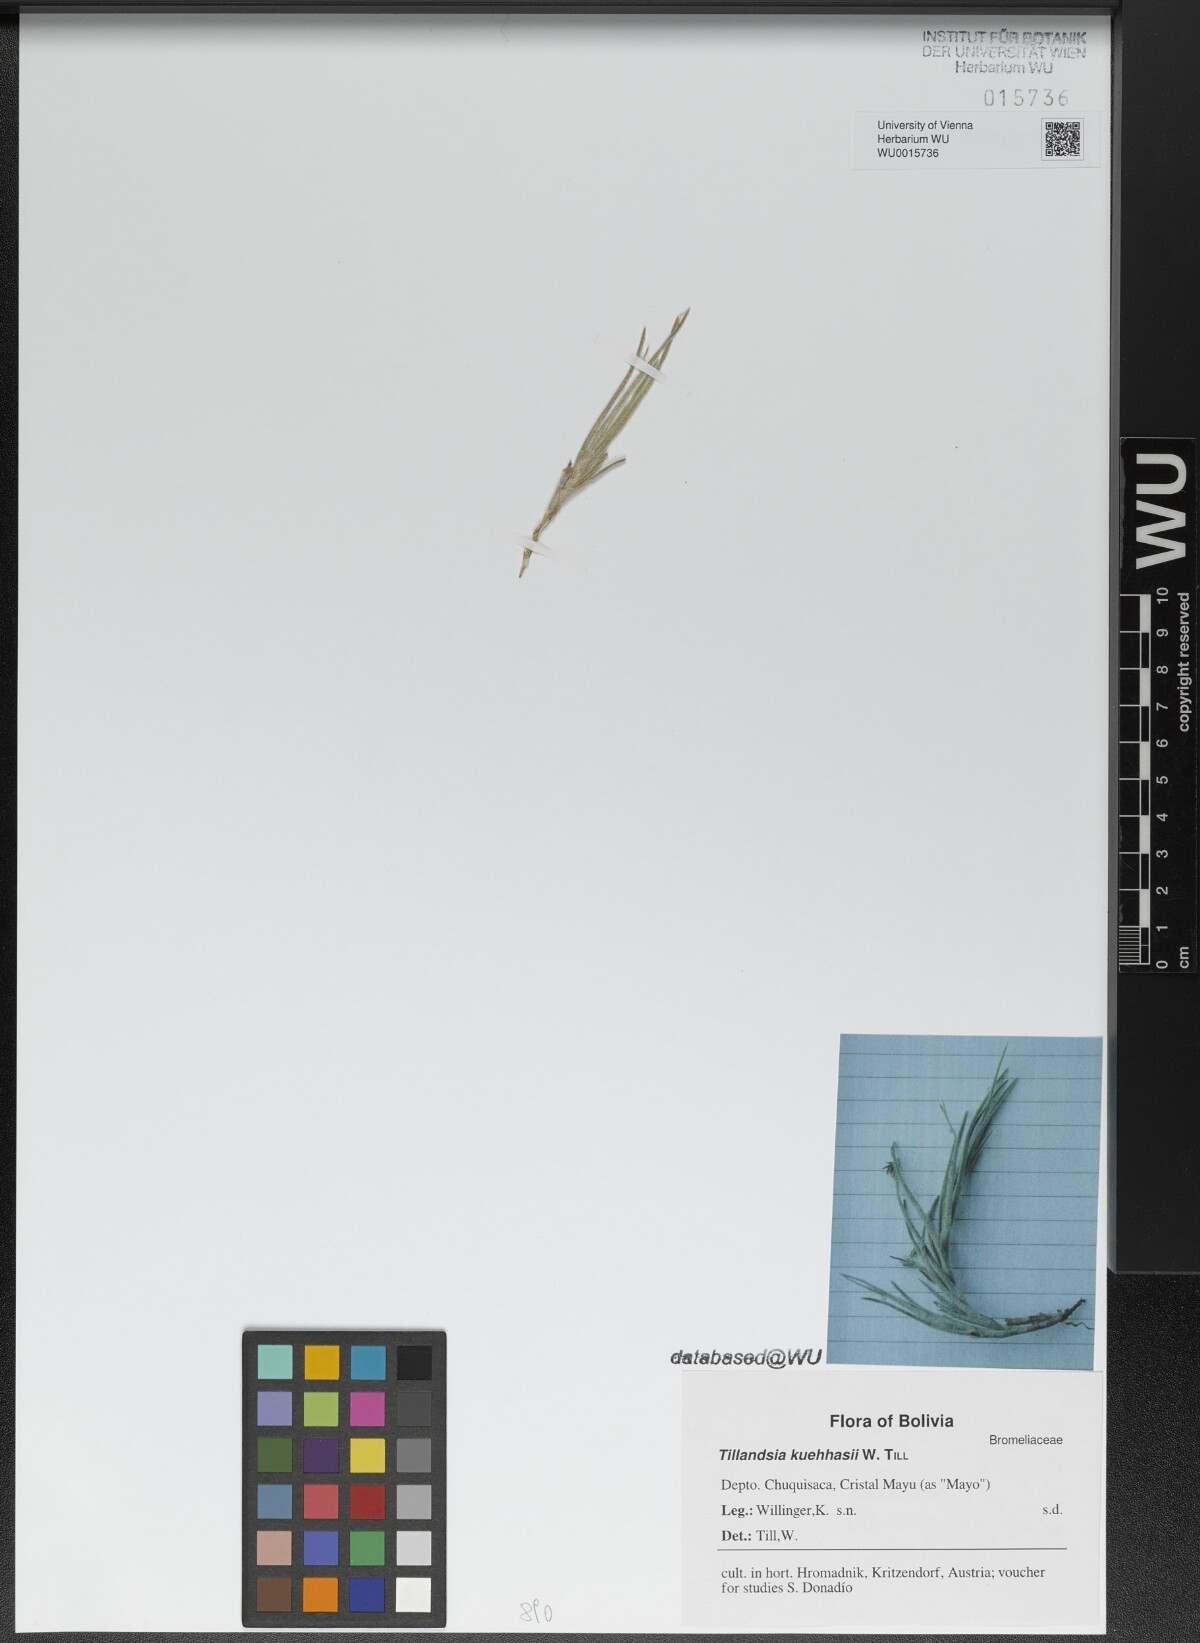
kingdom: Plantae
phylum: Tracheophyta
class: Liliopsida
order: Poales
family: Bromeliaceae
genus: Tillandsia
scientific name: Tillandsia virescens
